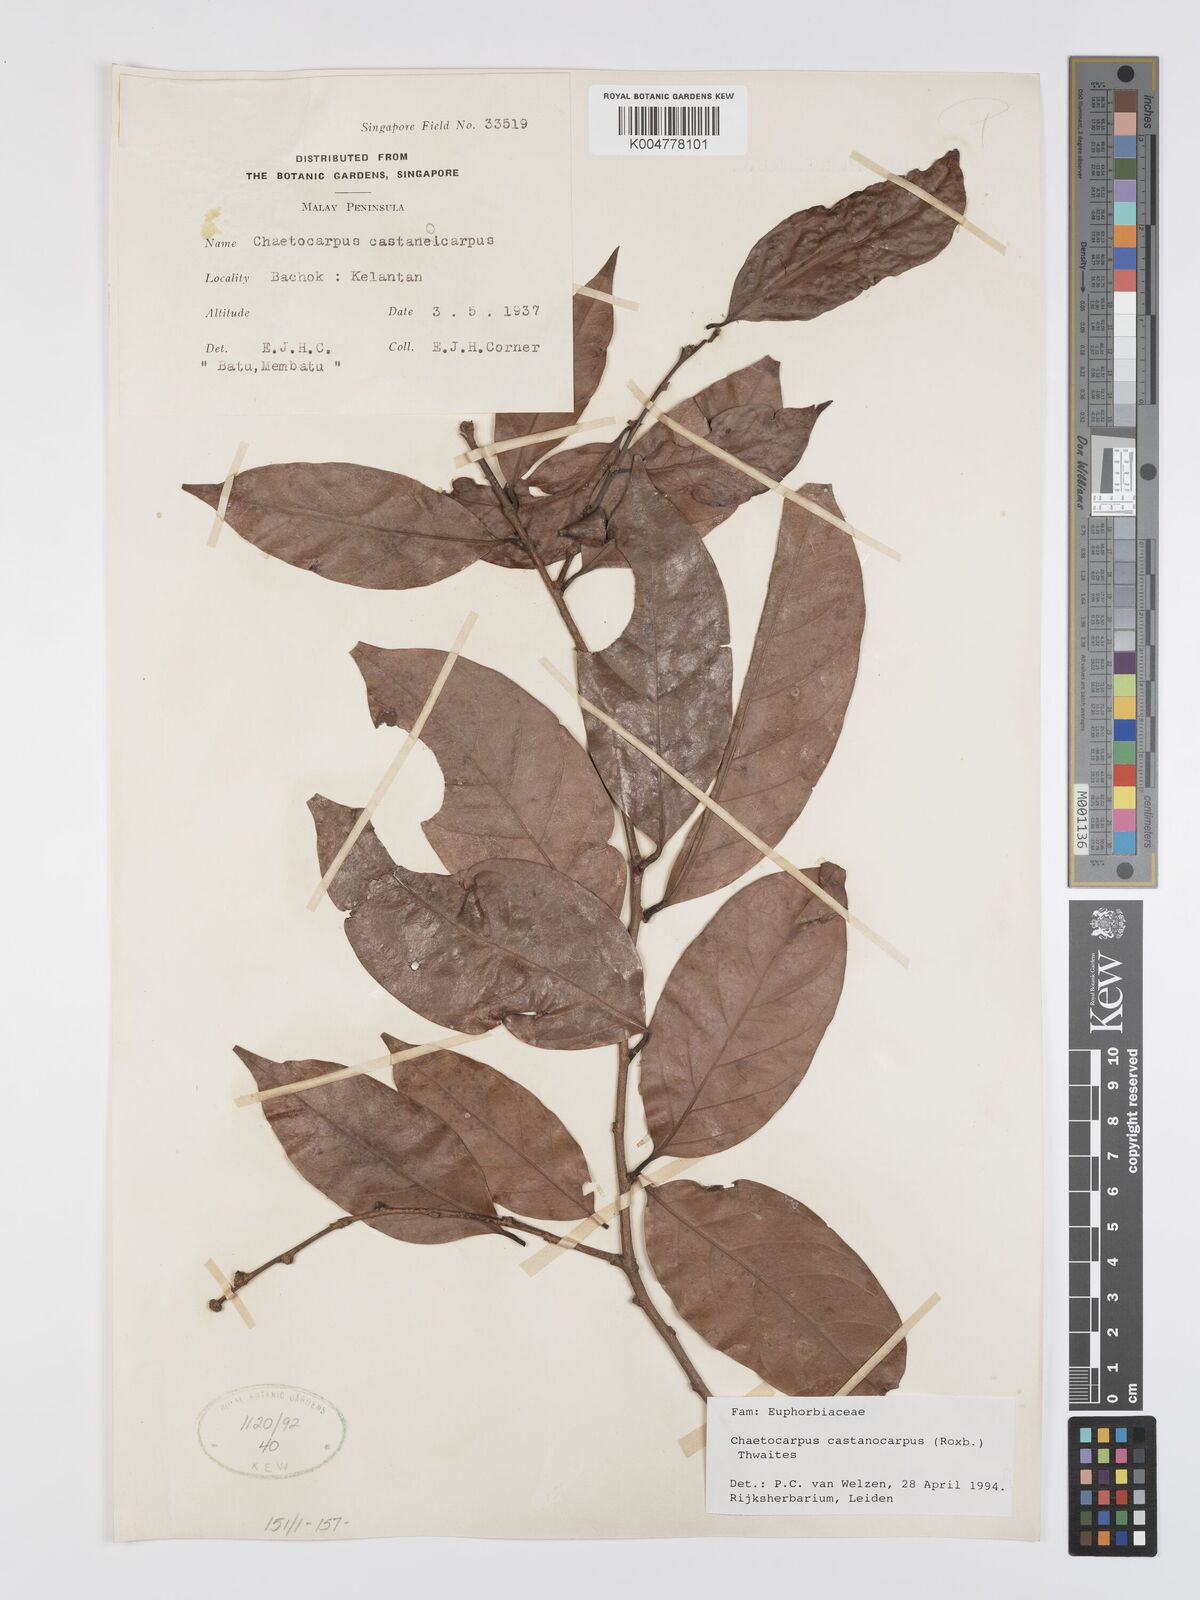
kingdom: Plantae
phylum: Tracheophyta
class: Magnoliopsida
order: Malpighiales
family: Peraceae
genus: Chaetocarpus
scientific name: Chaetocarpus castanocarpus
